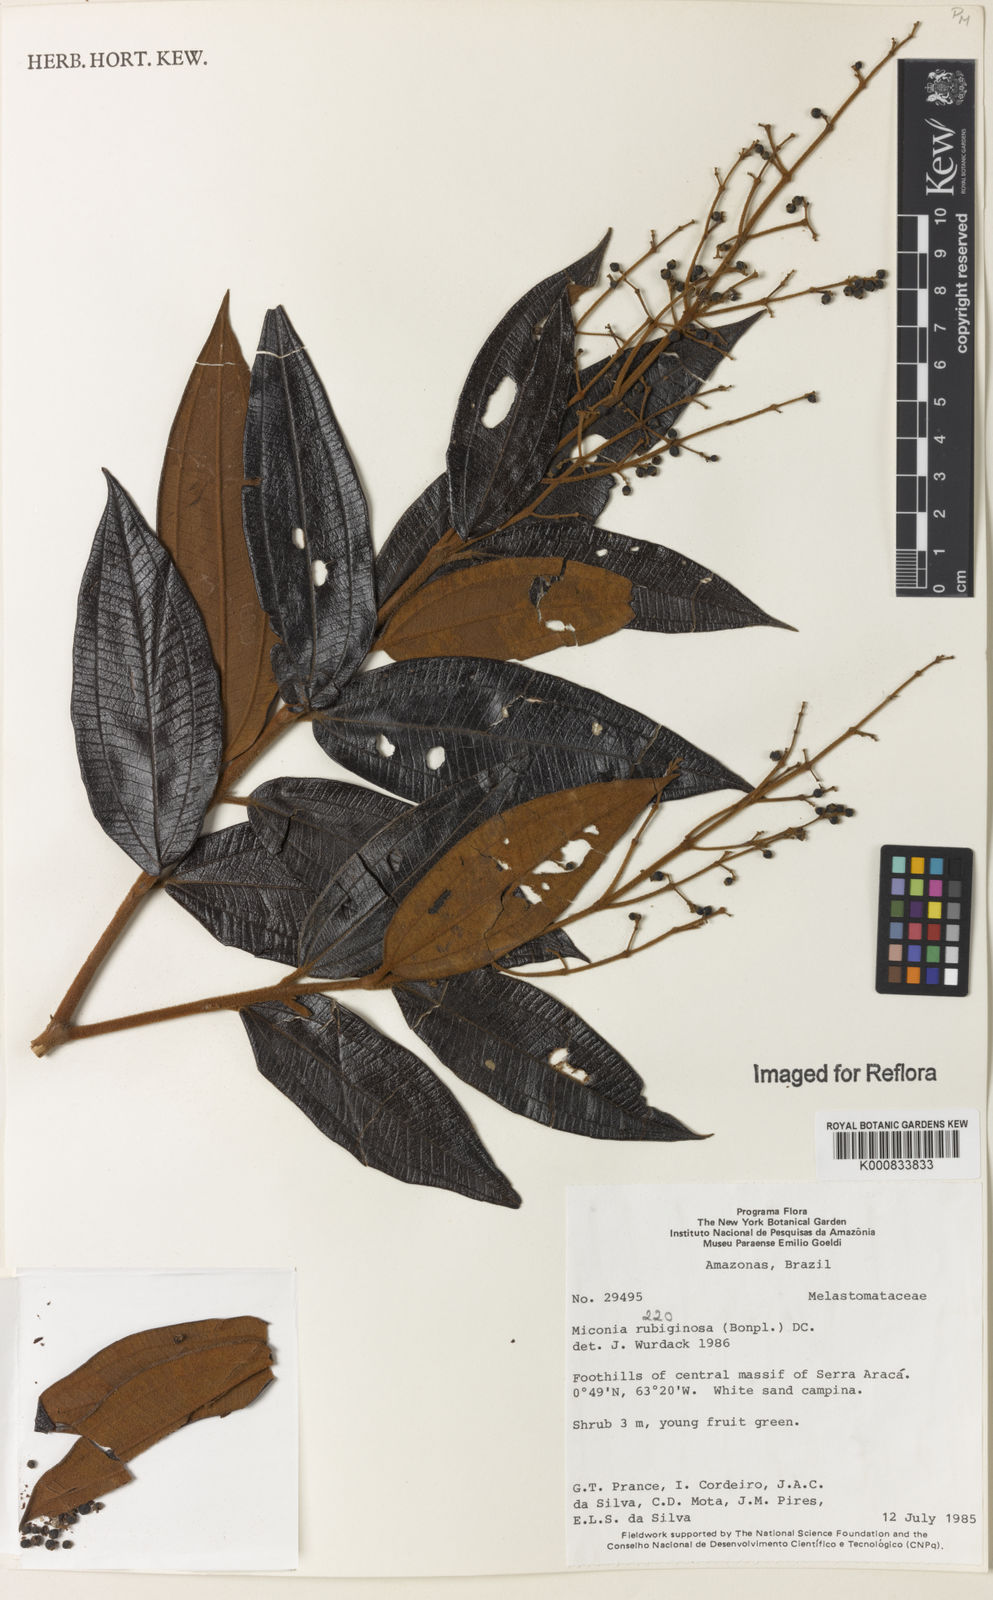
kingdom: Plantae
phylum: Tracheophyta
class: Magnoliopsida
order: Myrtales
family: Melastomataceae
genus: Miconia
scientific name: Miconia rubiginosa
